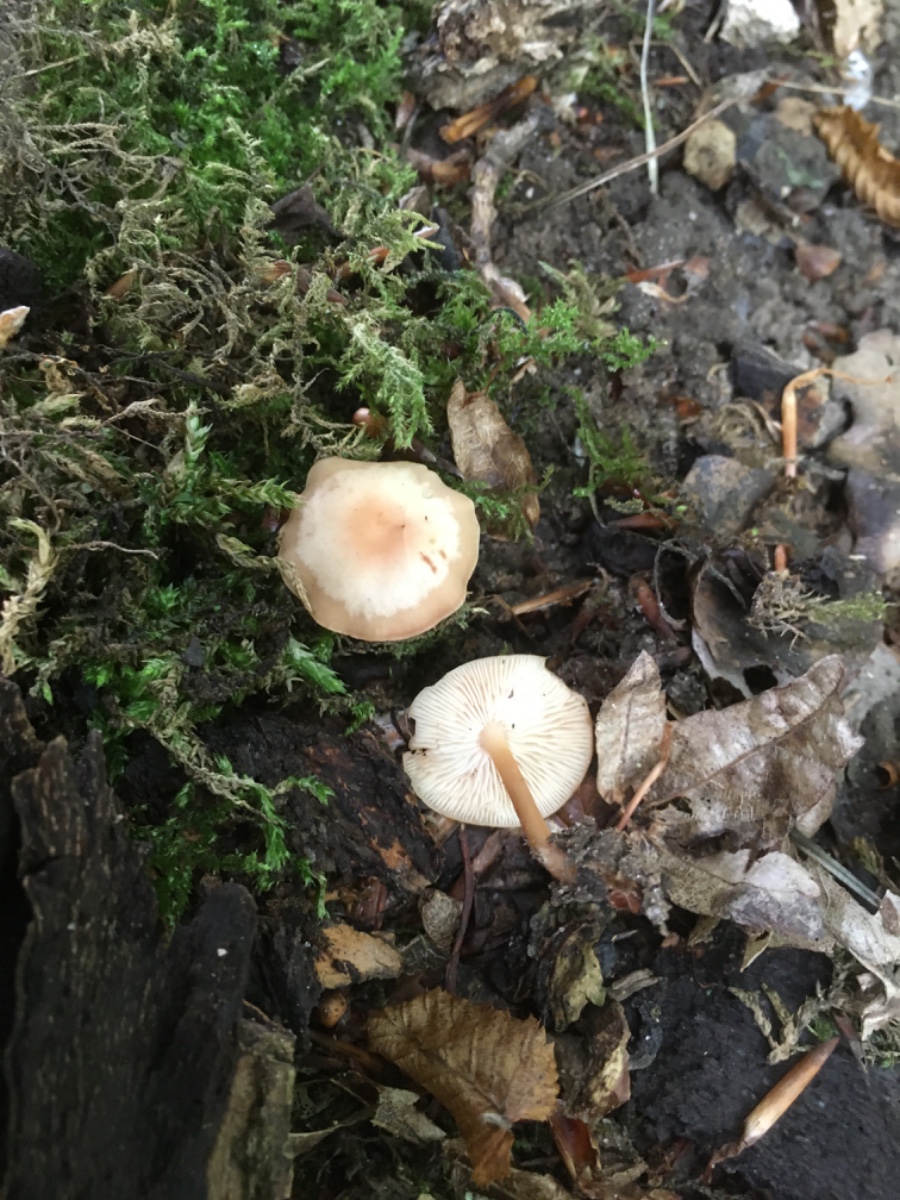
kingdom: Fungi
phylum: Basidiomycota
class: Agaricomycetes
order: Agaricales
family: Omphalotaceae
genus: Gymnopus
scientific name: Gymnopus dryophilus
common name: løv-fladhat
